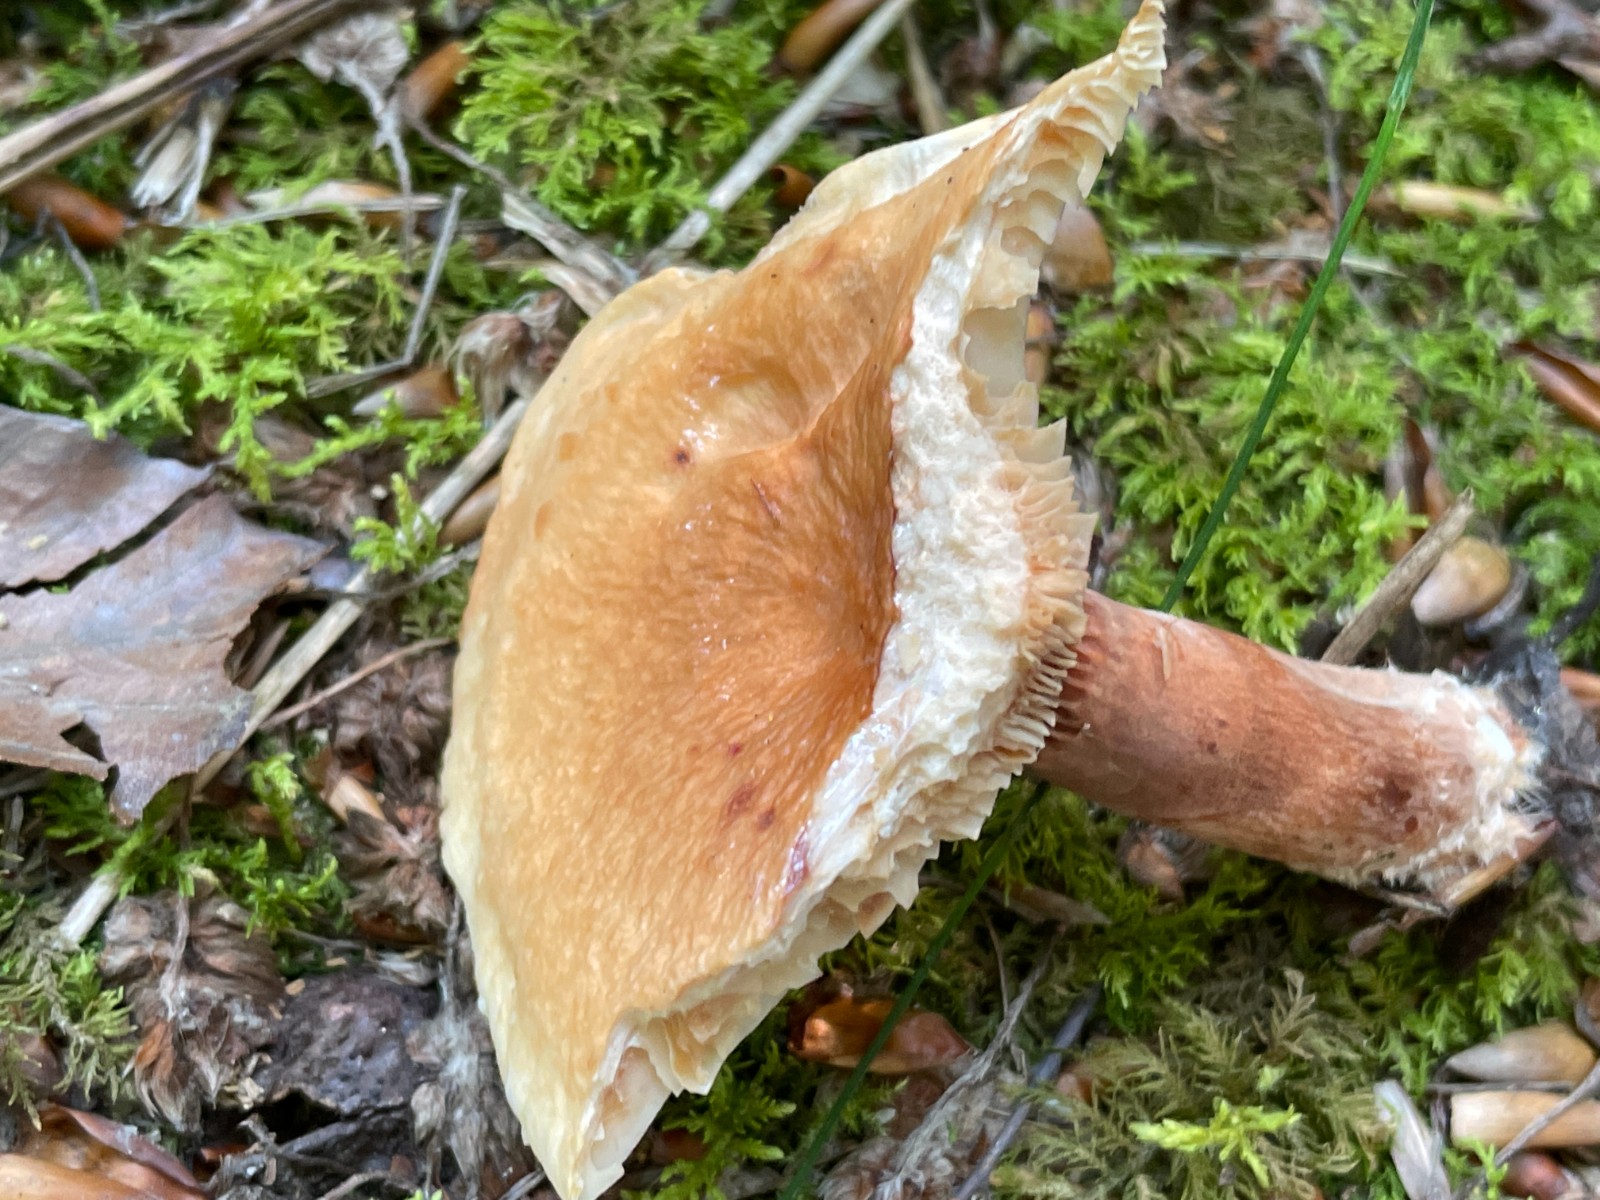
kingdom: Fungi
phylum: Basidiomycota
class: Agaricomycetes
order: Russulales
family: Russulaceae
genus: Lactarius
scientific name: Lactarius subdulcis
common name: sødlig mælkehat
